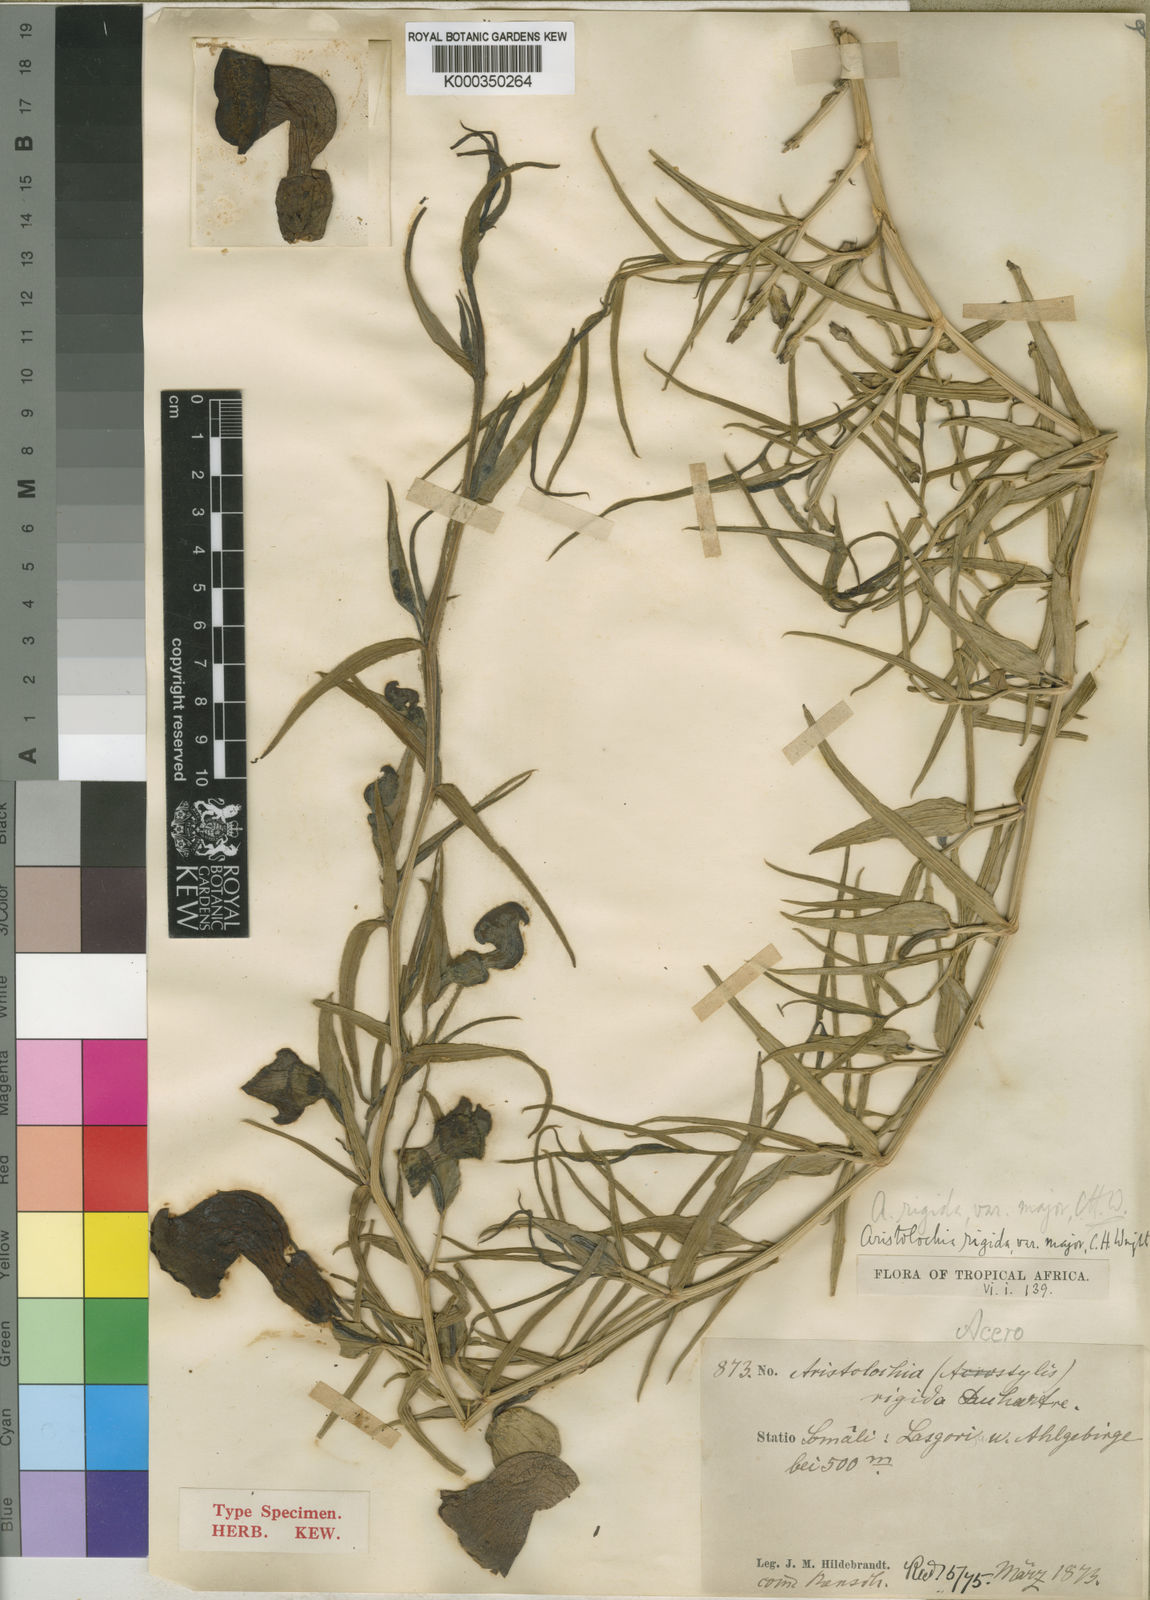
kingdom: Plantae
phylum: Tracheophyta
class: Magnoliopsida
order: Piperales
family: Aristolochiaceae
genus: Aristolochia
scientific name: Aristolochia rigida
